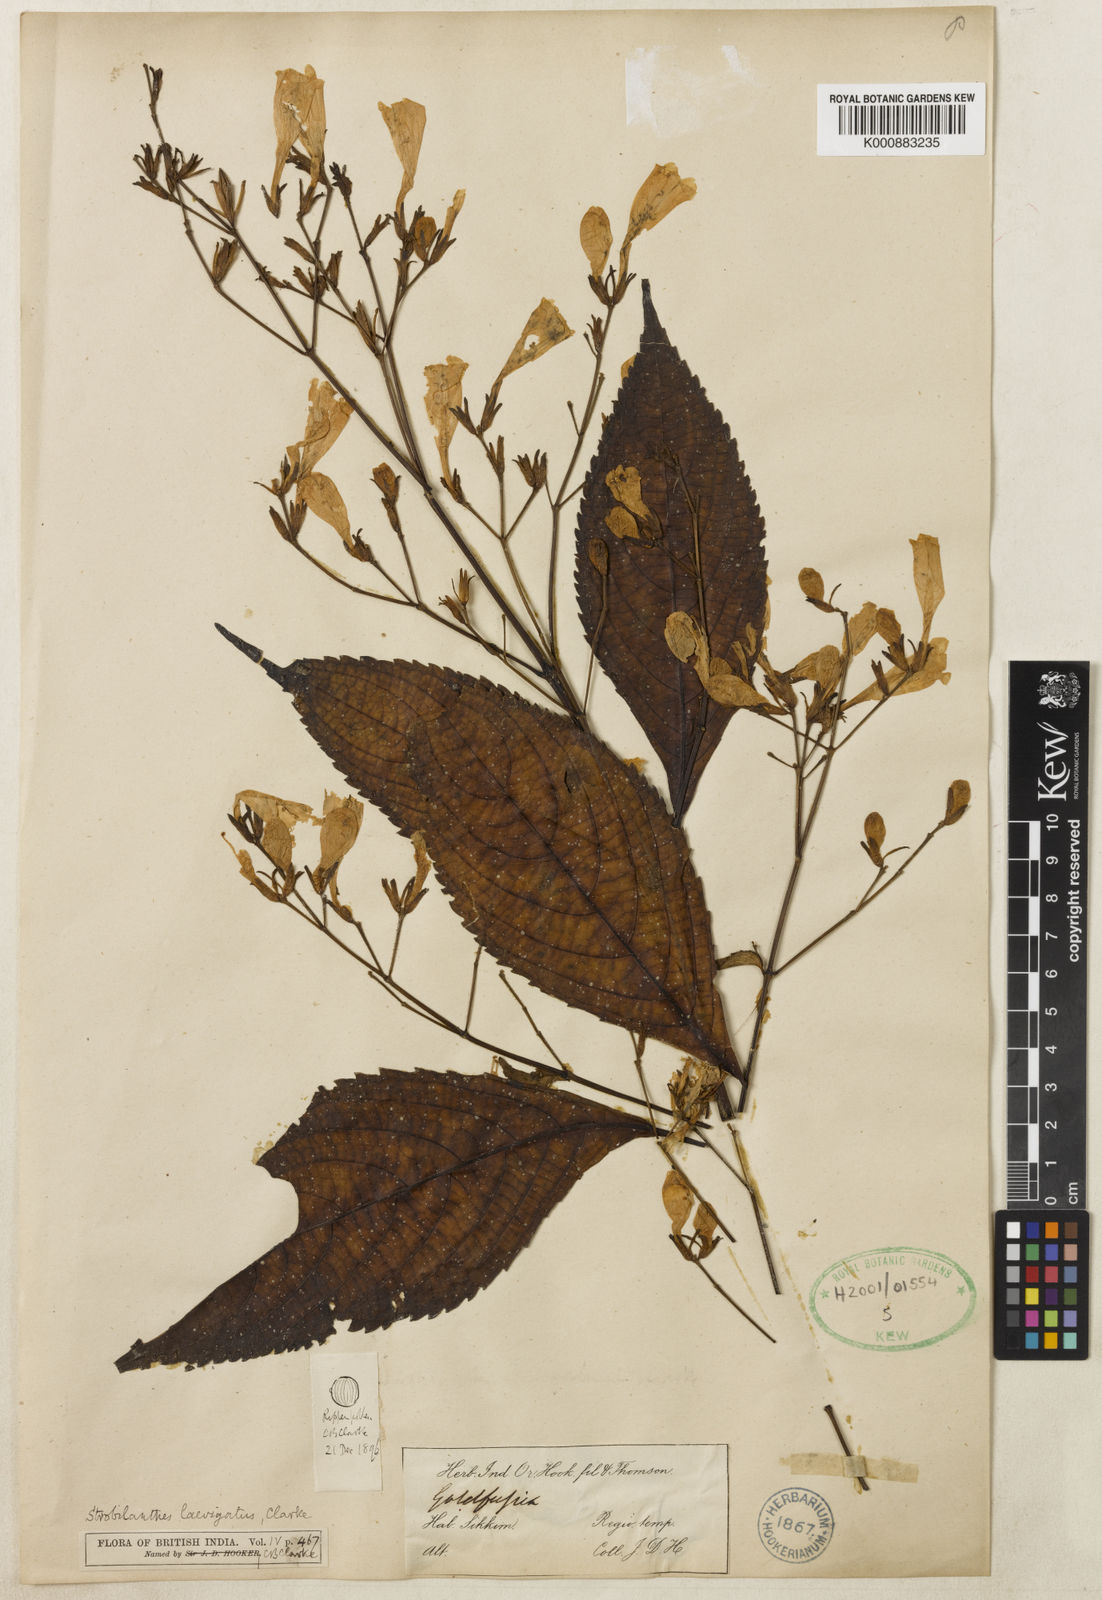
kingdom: Plantae
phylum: Tracheophyta
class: Magnoliopsida
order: Lamiales
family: Acanthaceae
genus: Strobilanthes
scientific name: Strobilanthes hamiltoniana
